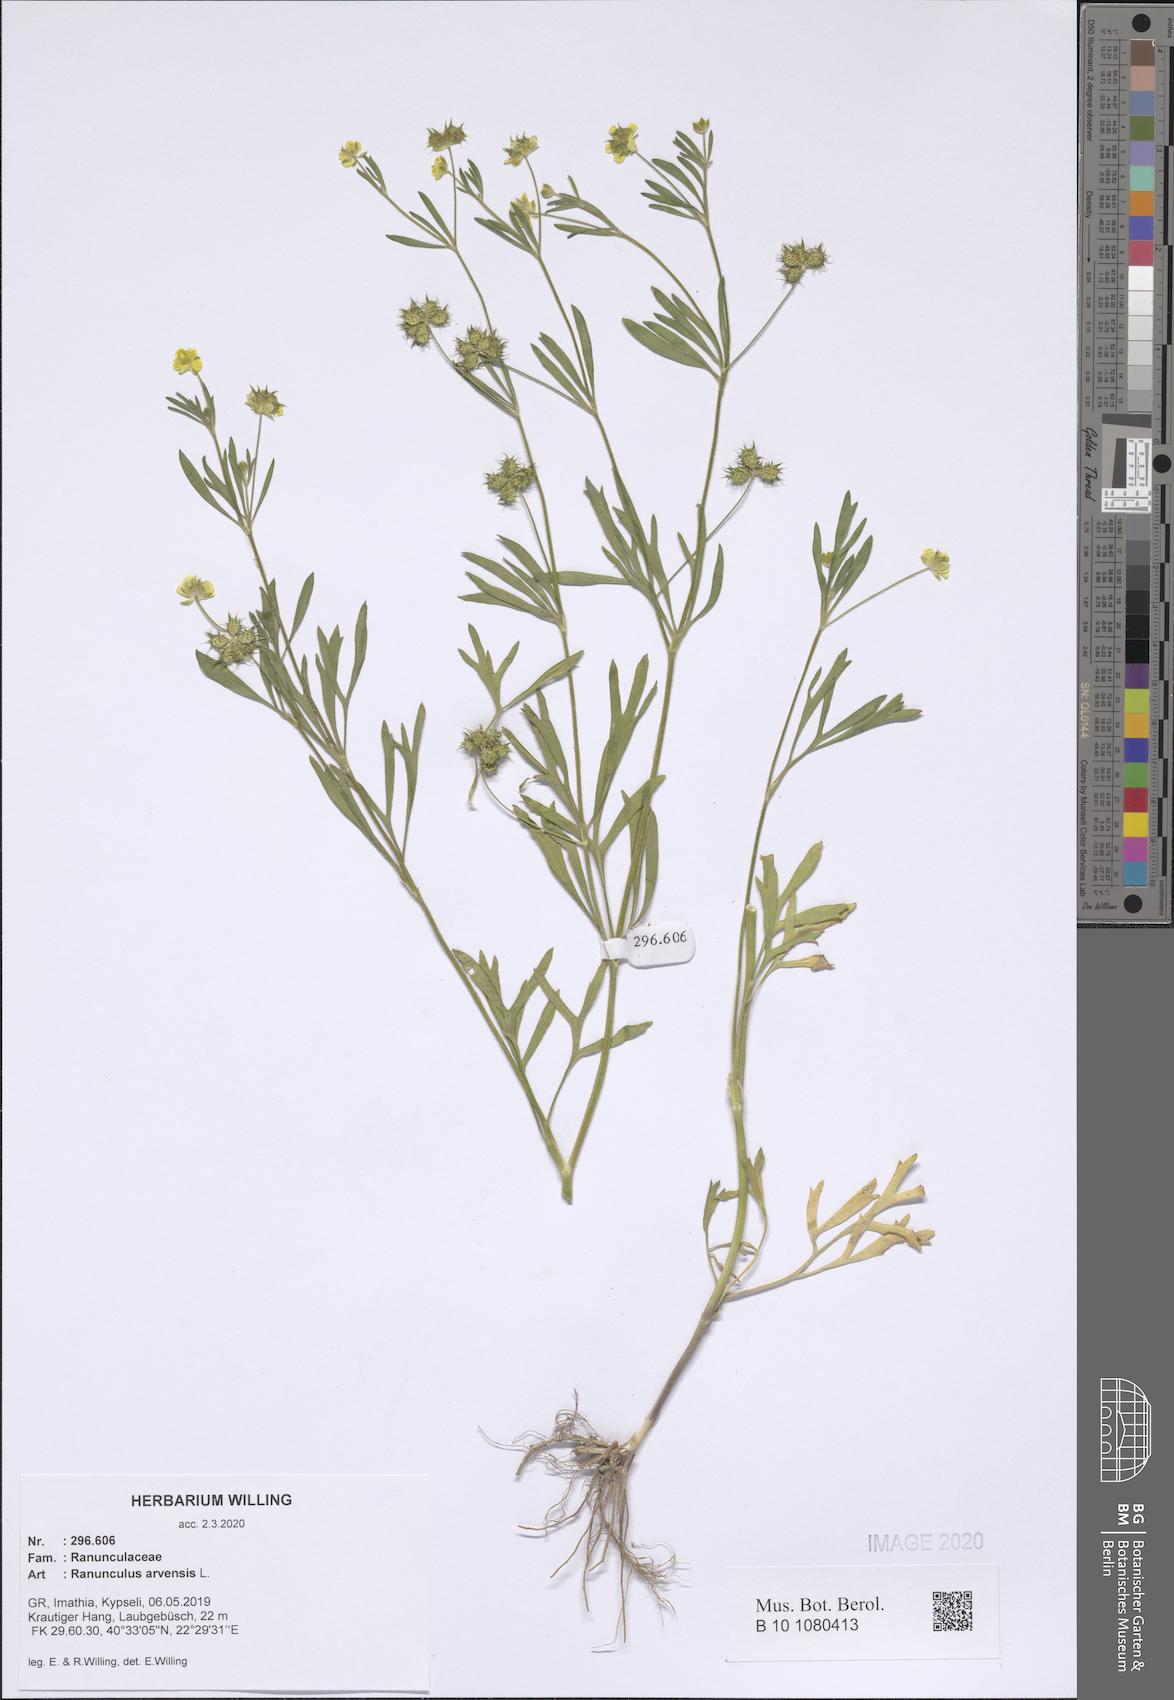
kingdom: Plantae
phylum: Tracheophyta
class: Magnoliopsida
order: Ranunculales
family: Ranunculaceae
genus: Ranunculus
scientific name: Ranunculus arvensis
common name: Corn buttercup
